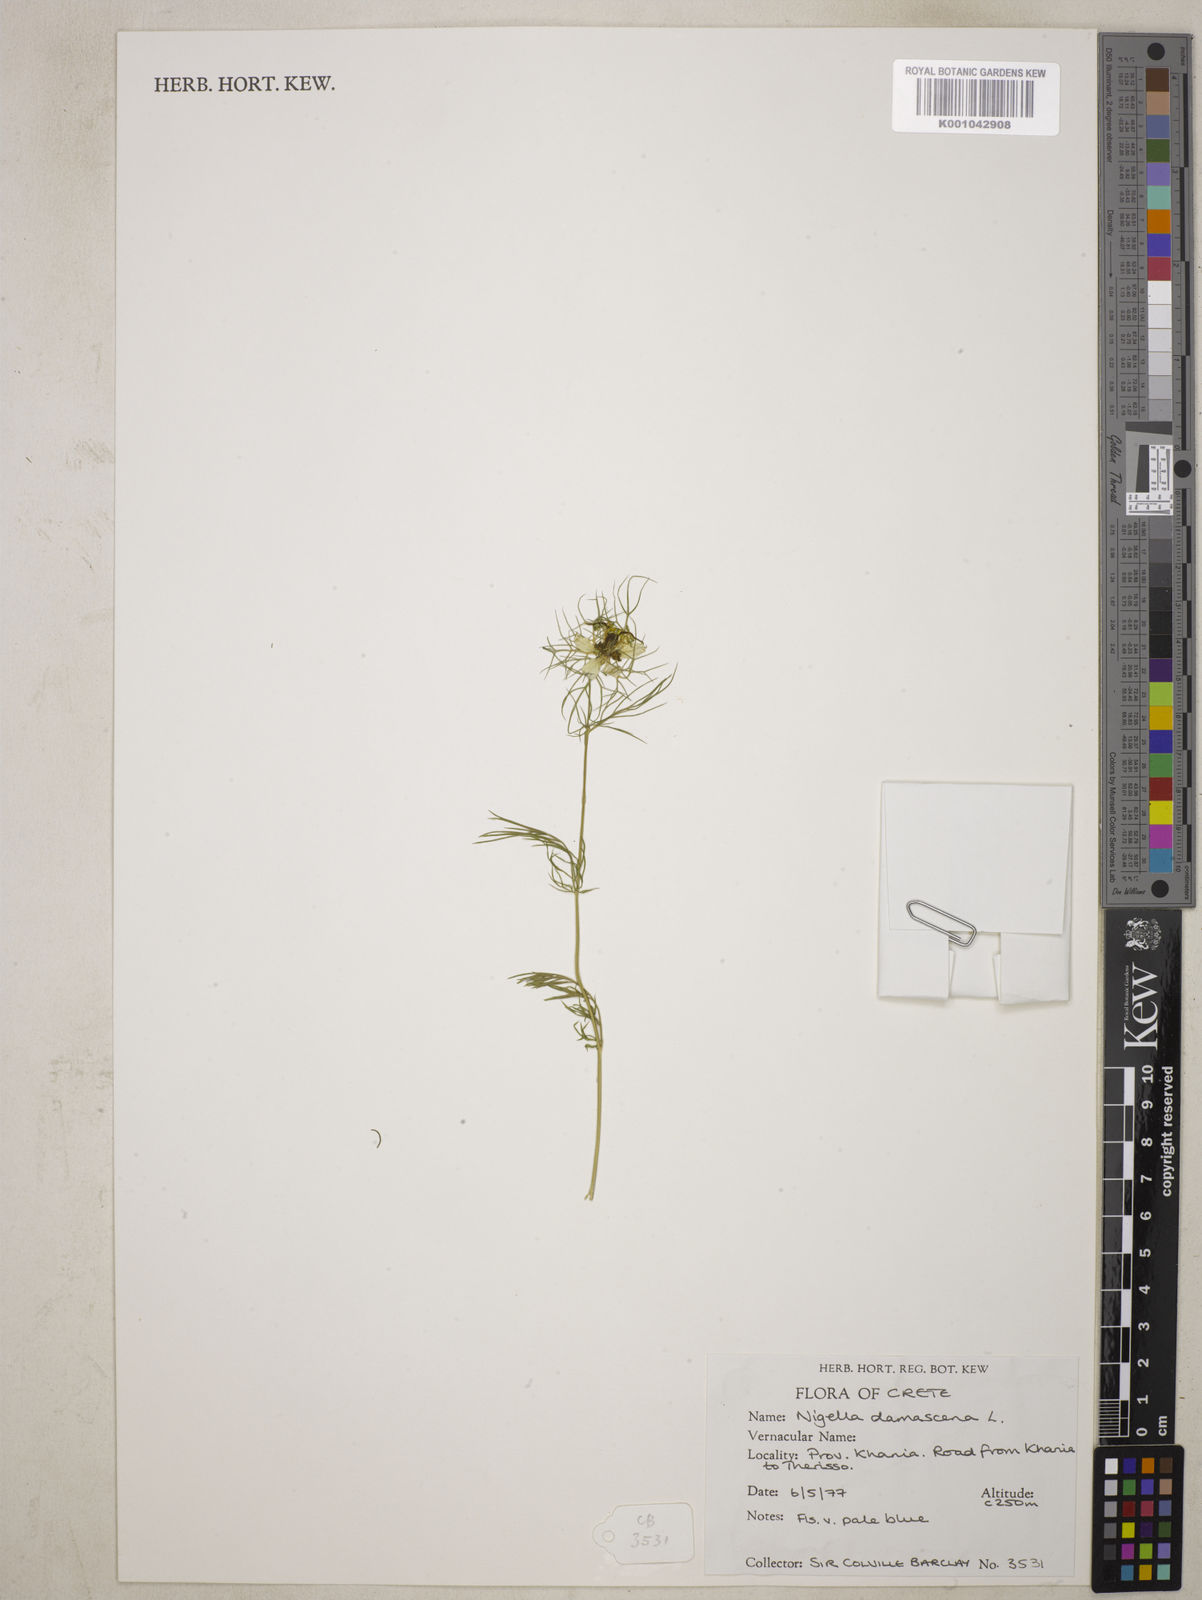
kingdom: Plantae
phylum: Tracheophyta
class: Magnoliopsida
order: Ranunculales
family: Ranunculaceae
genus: Nigella
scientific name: Nigella damascena
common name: Love-in-a-mist
